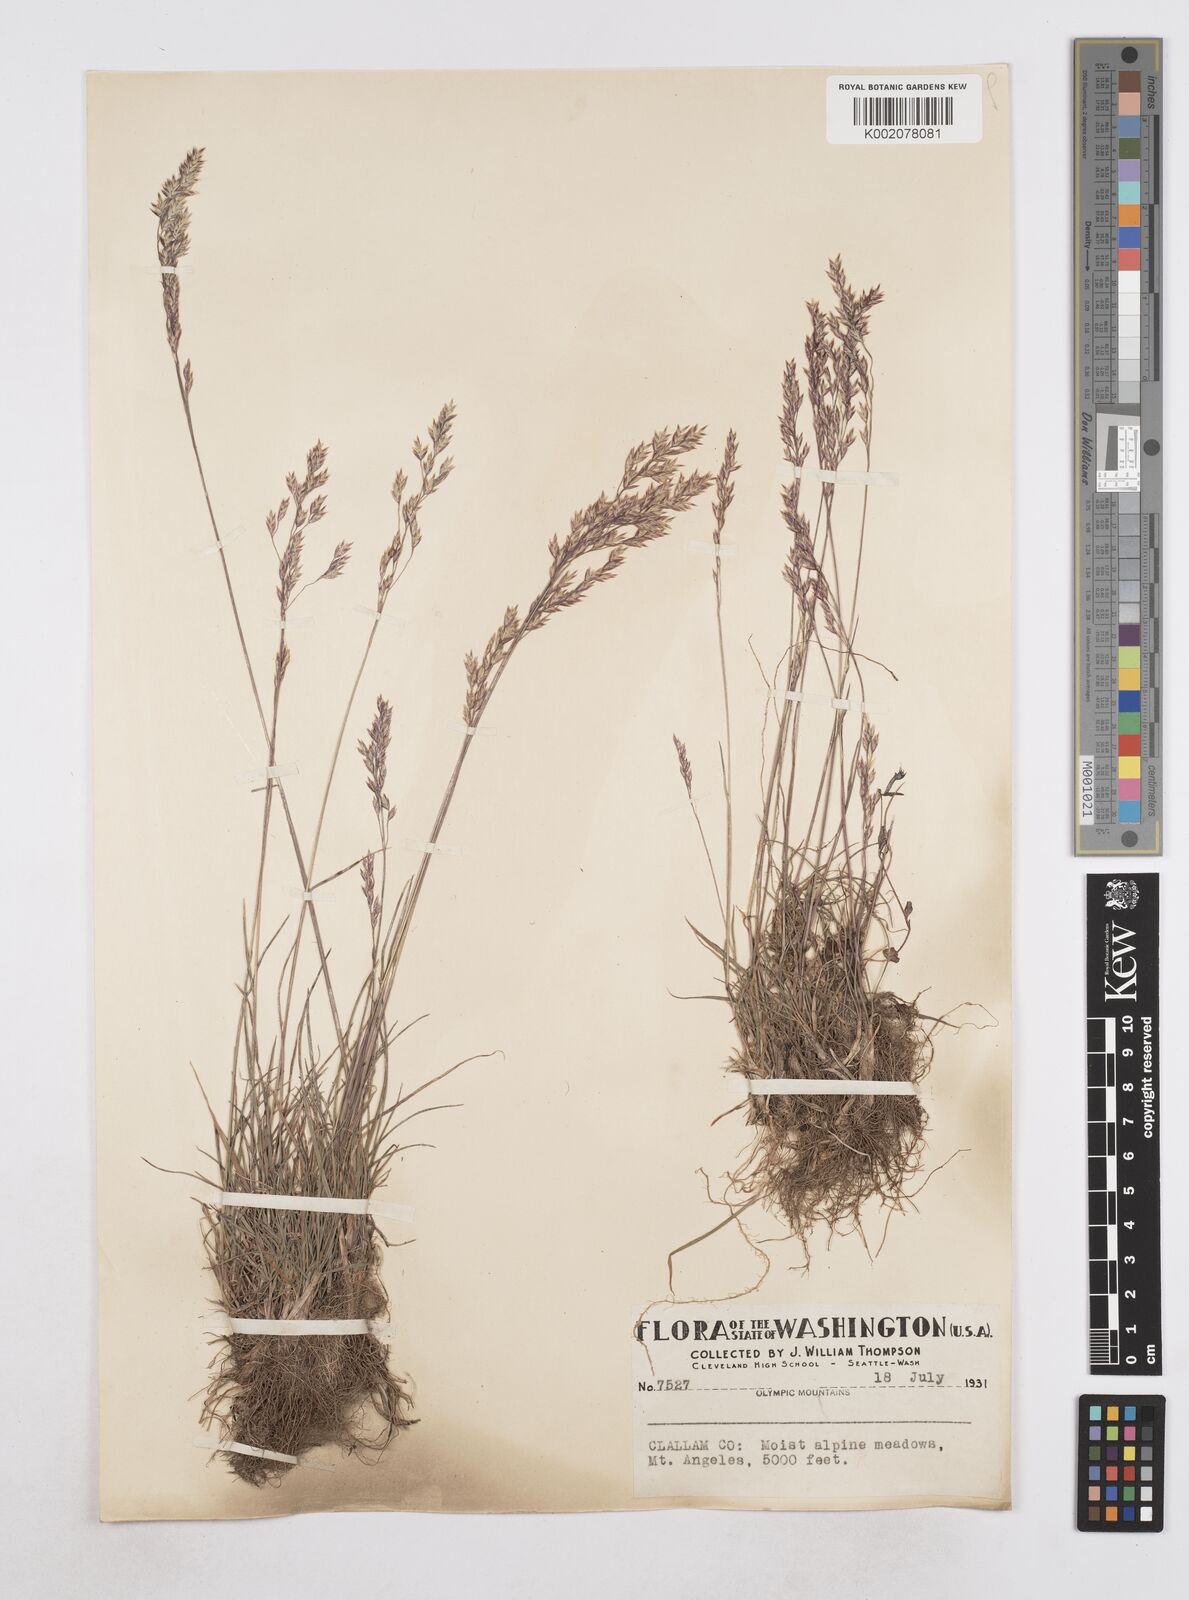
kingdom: Plantae
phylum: Tracheophyta
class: Liliopsida
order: Poales
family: Poaceae
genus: Poa
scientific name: Poa
